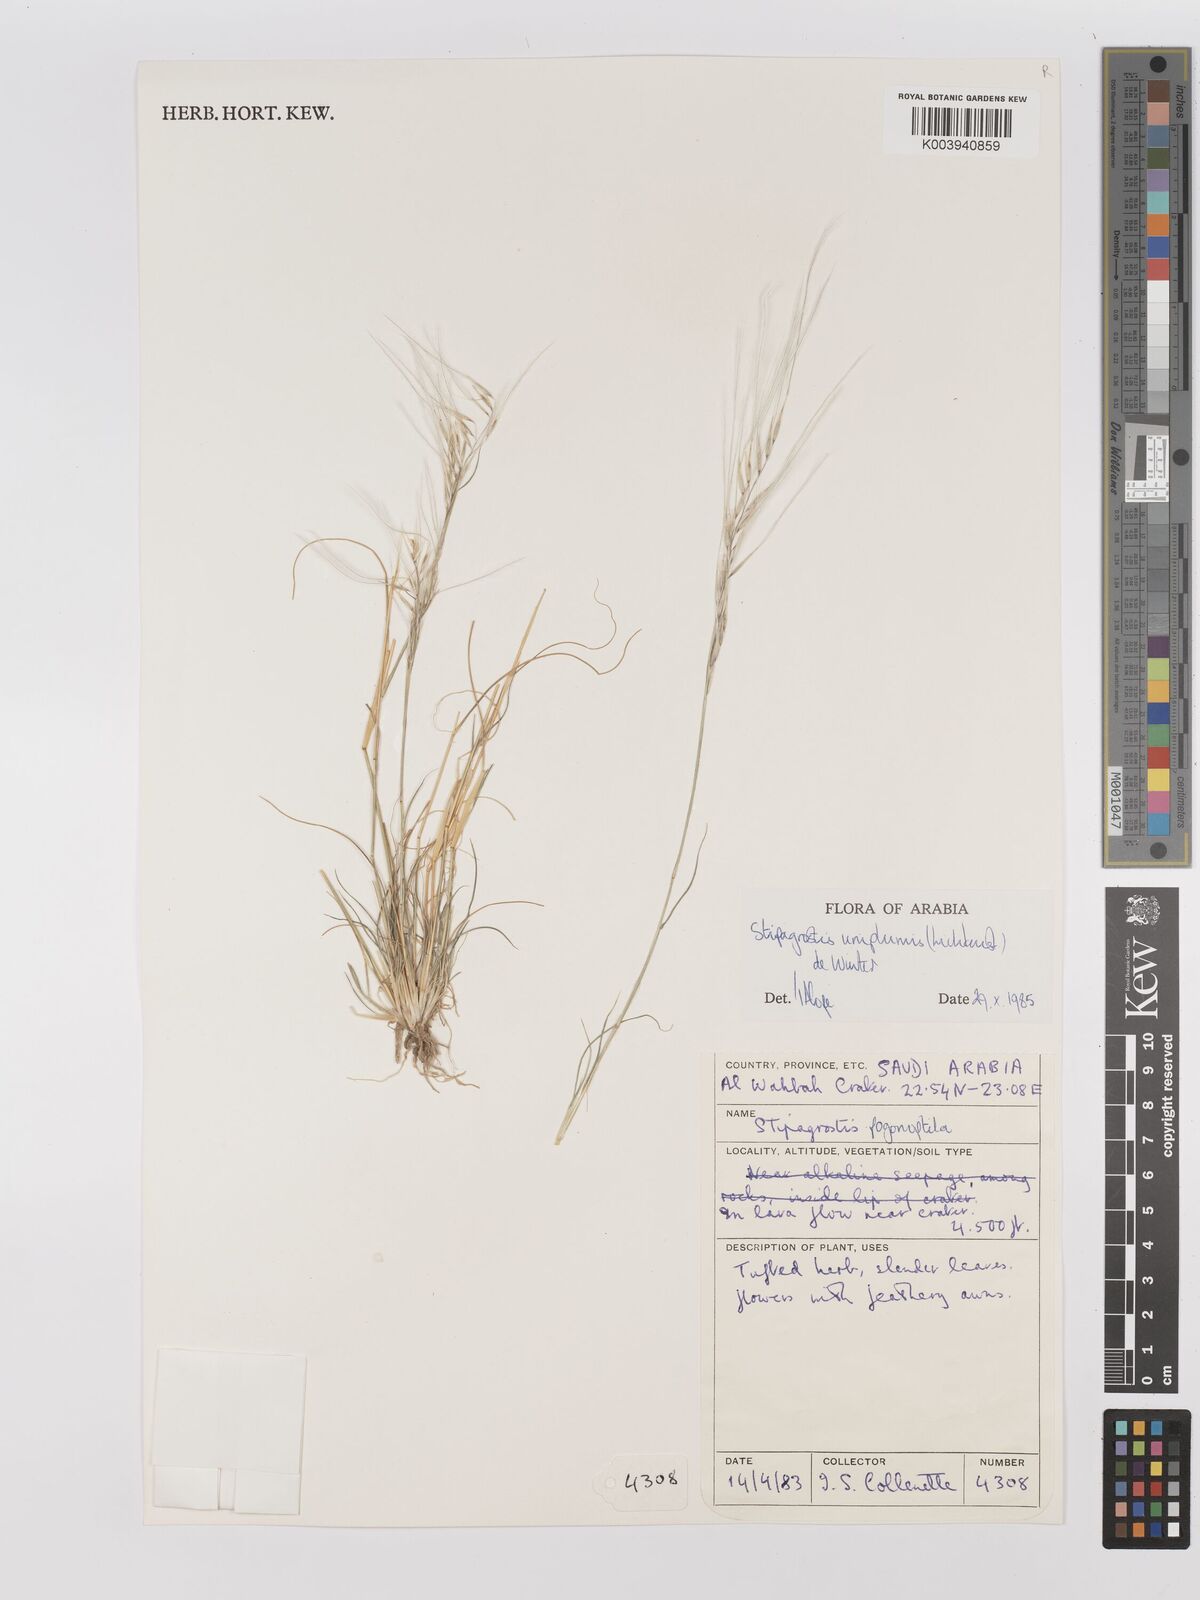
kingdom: Plantae
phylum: Tracheophyta
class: Liliopsida
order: Poales
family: Poaceae
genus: Stipagrostis
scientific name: Stipagrostis uniplumis
